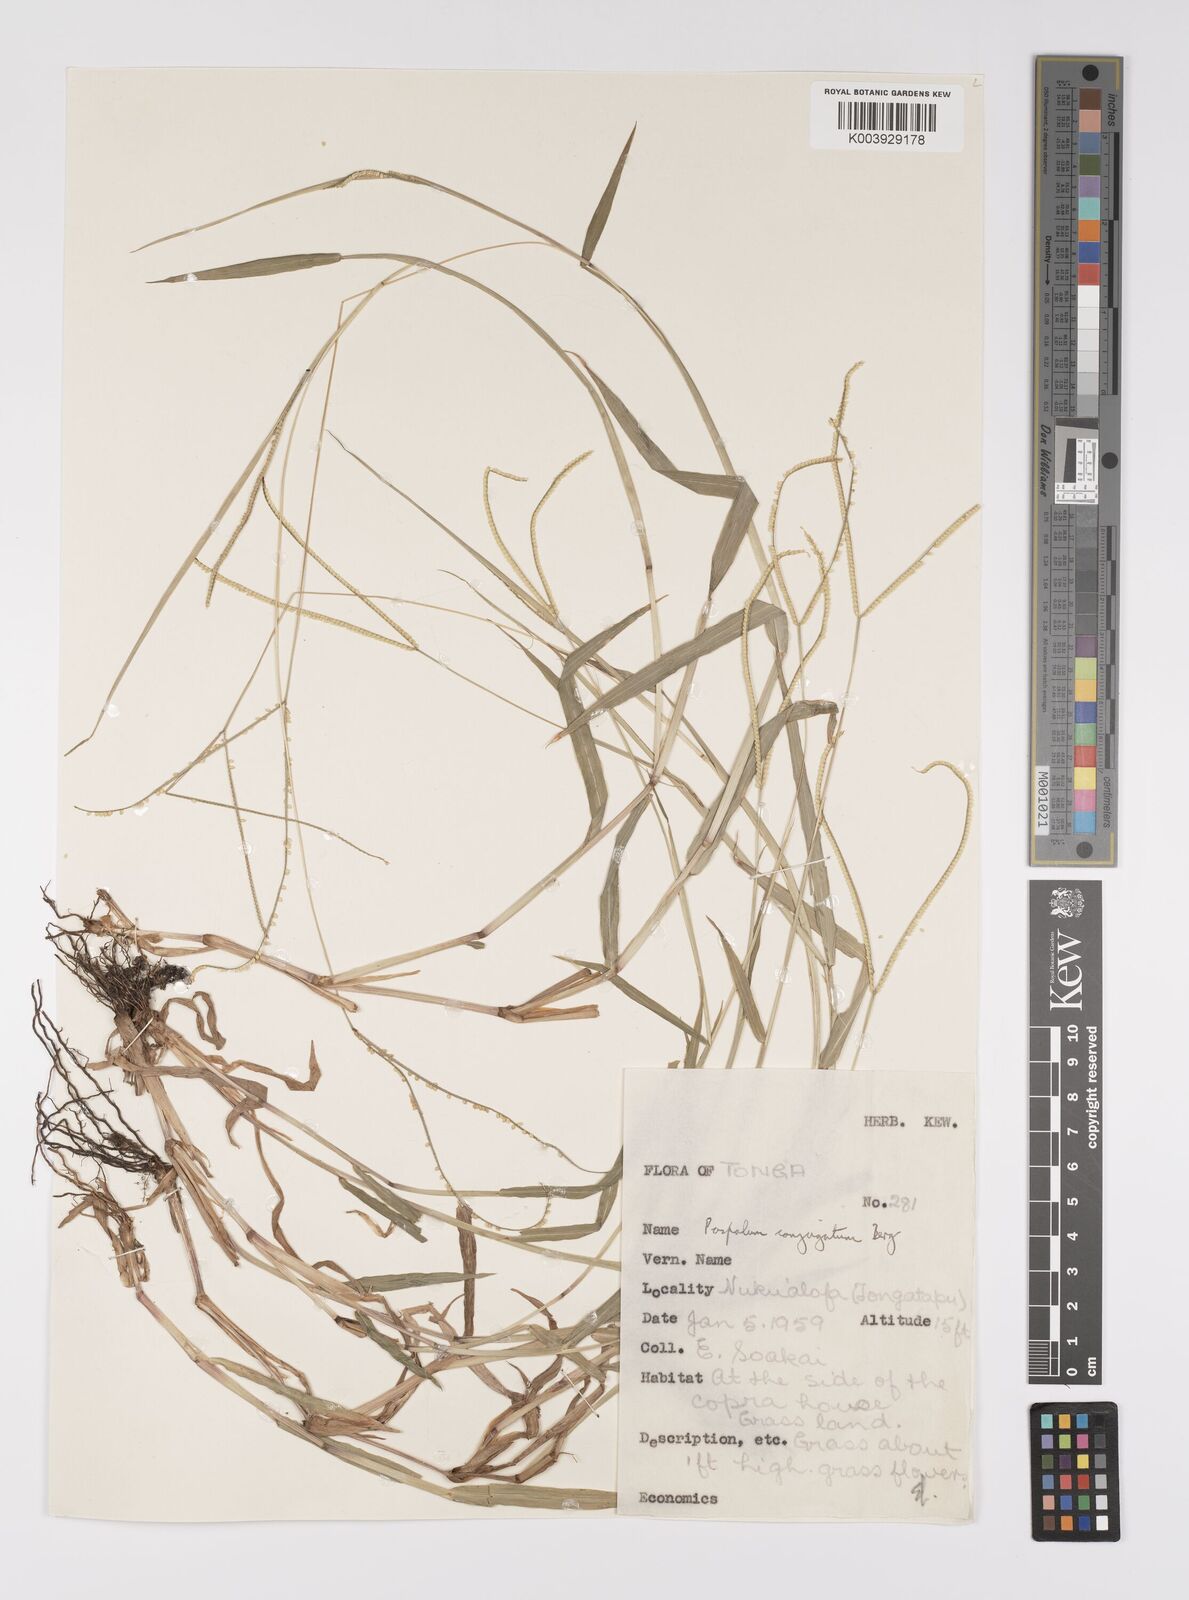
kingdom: Plantae
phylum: Tracheophyta
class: Liliopsida
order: Poales
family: Poaceae
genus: Paspalum
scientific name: Paspalum conjugatum
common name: Hilograss
